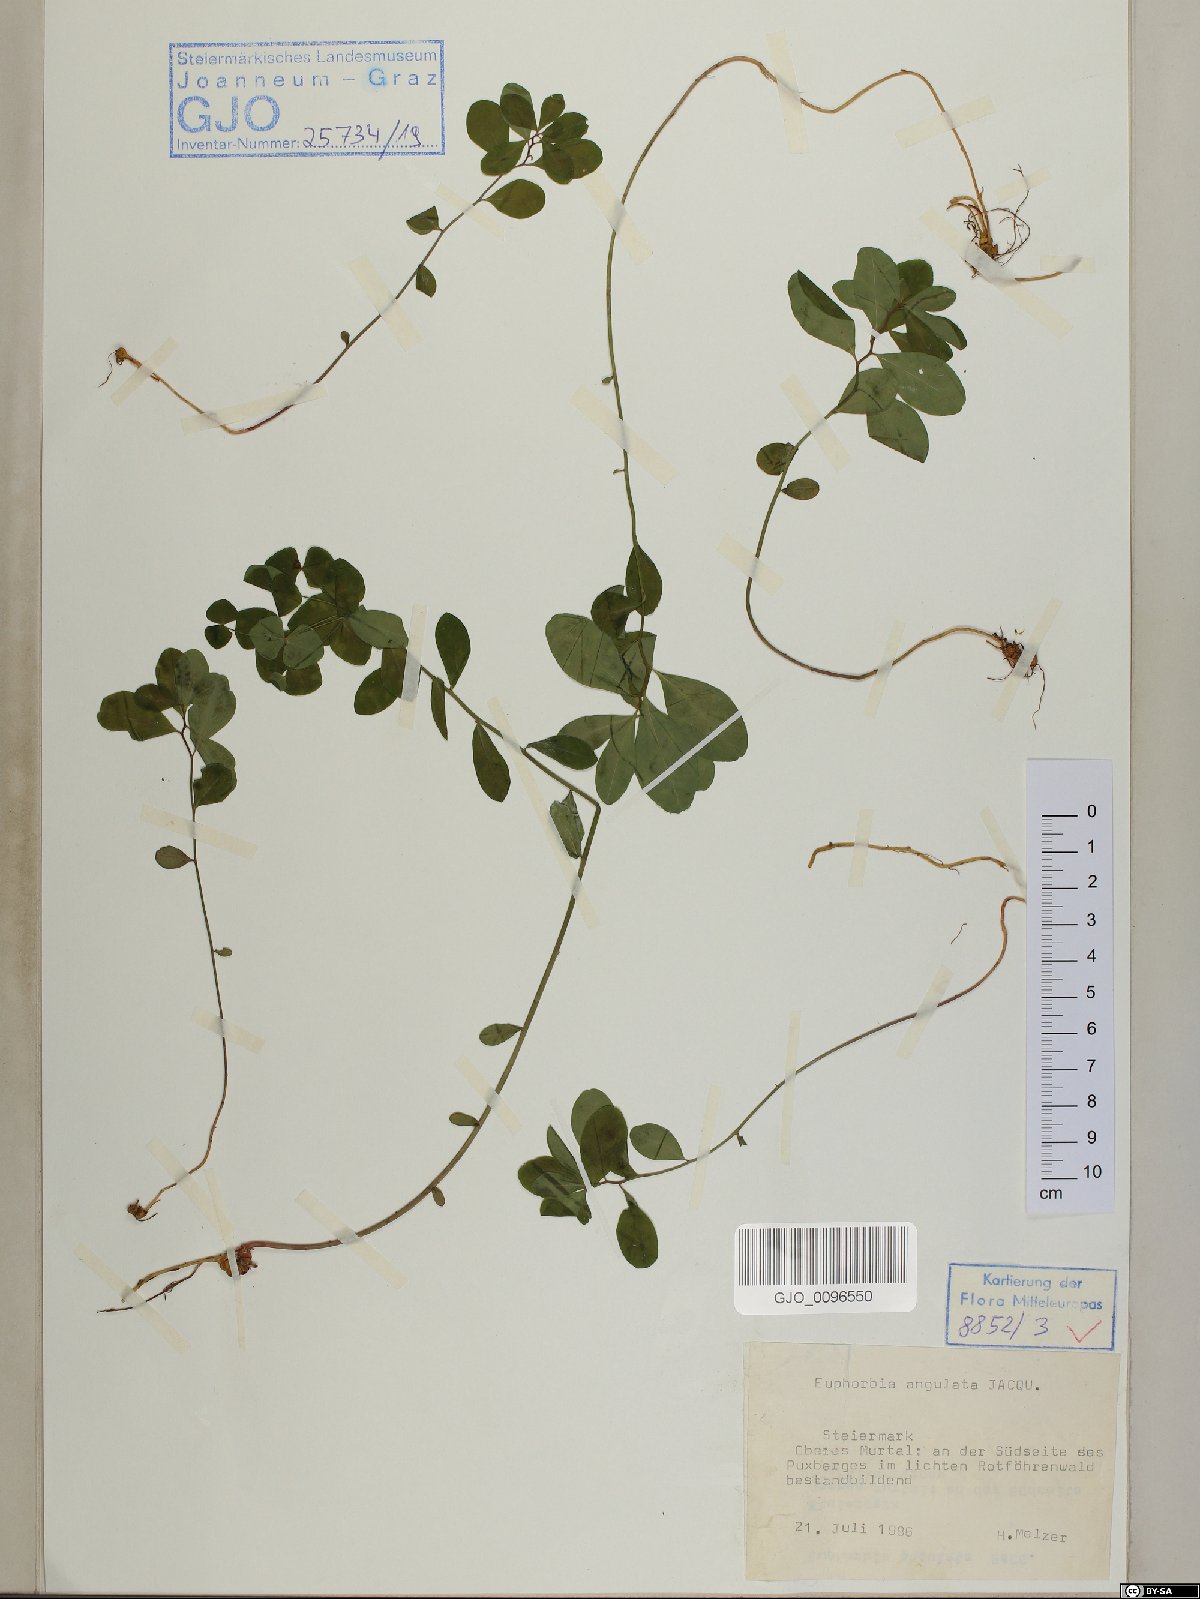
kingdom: Plantae
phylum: Tracheophyta
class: Magnoliopsida
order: Malpighiales
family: Euphorbiaceae
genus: Euphorbia
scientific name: Euphorbia angulata
